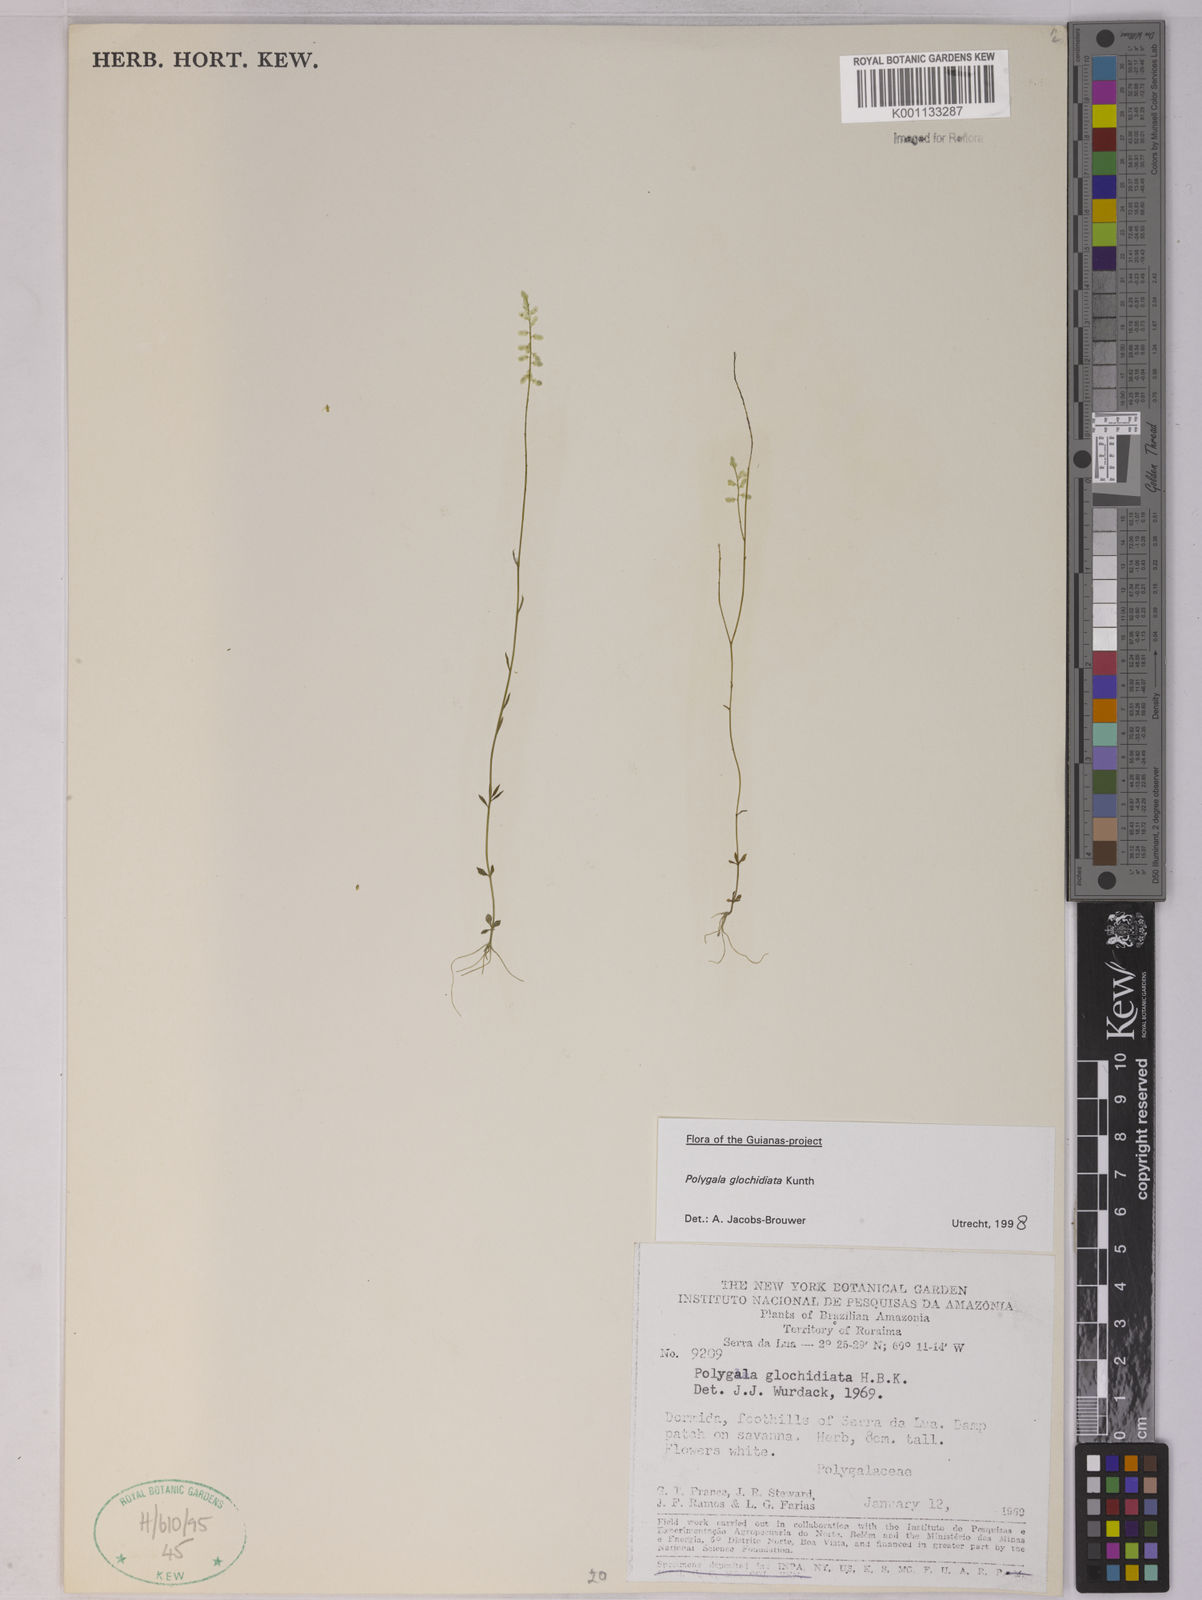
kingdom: Plantae
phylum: Tracheophyta
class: Magnoliopsida
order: Fabales
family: Polygalaceae
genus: Polygala
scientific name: Polygala glochidiata
